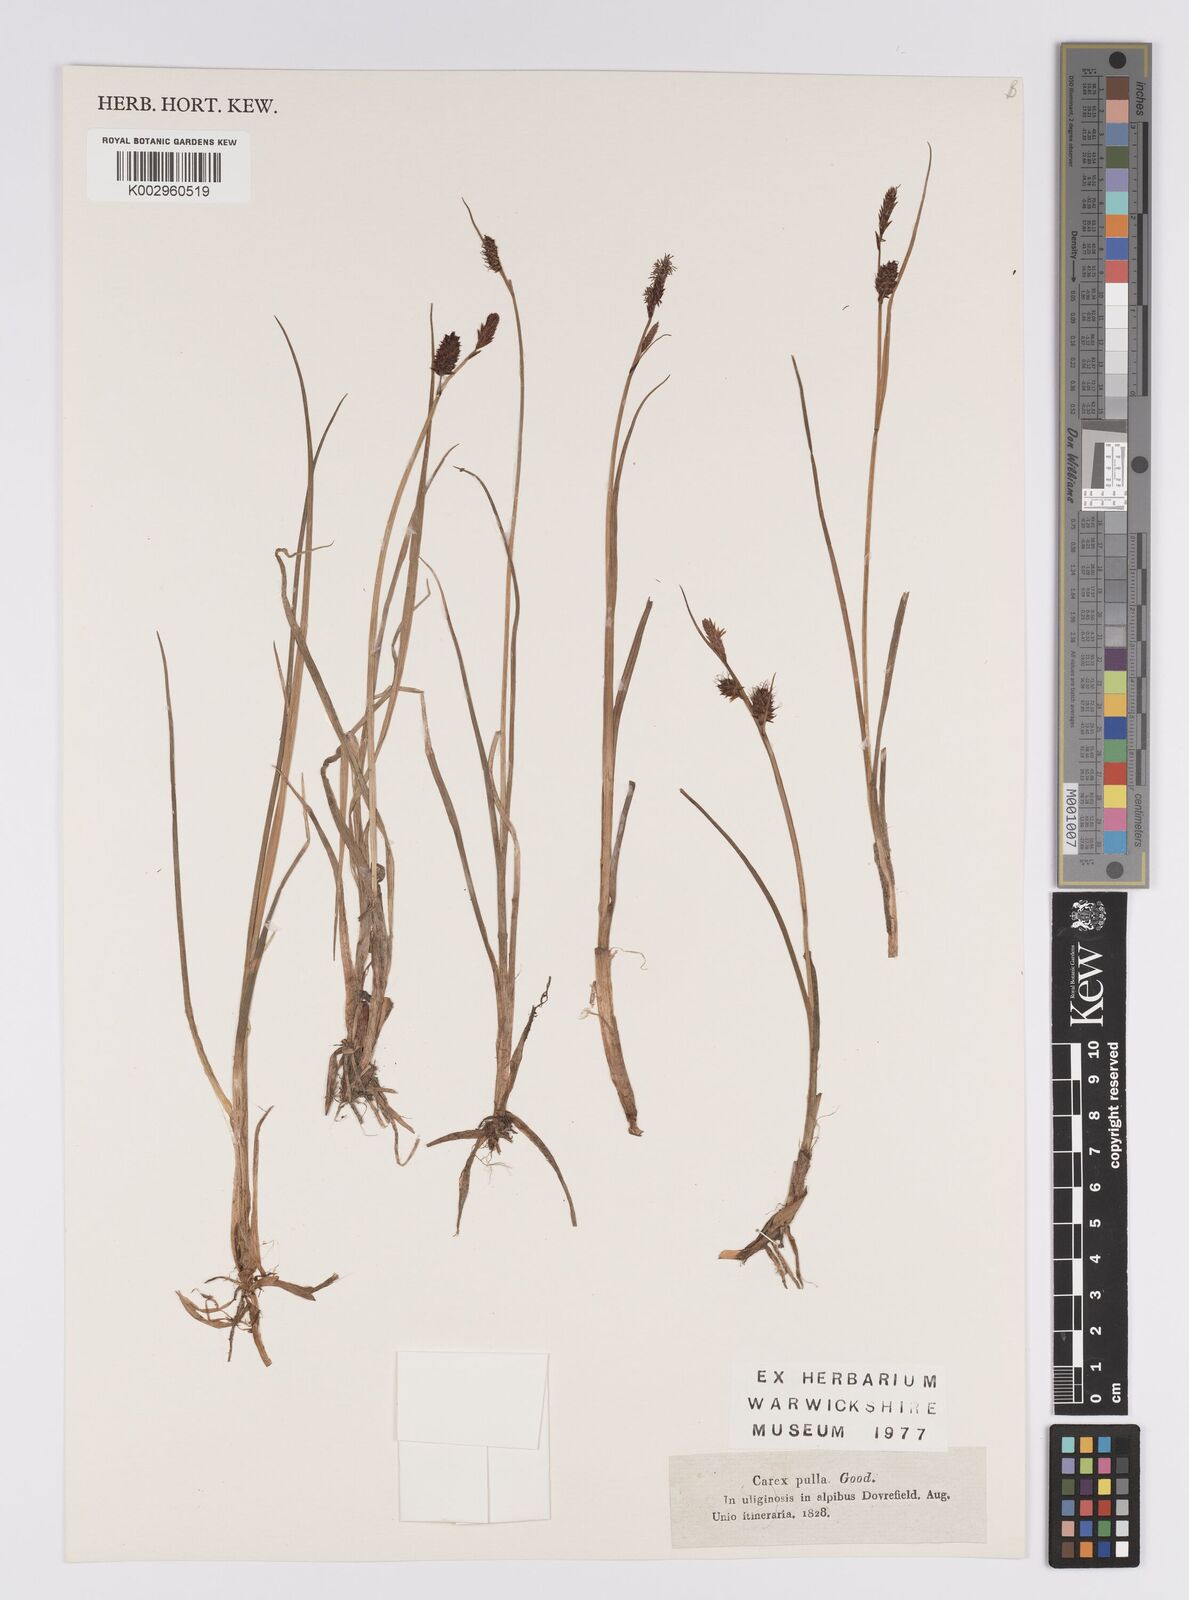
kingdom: Plantae
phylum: Tracheophyta
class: Liliopsida
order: Poales
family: Cyperaceae
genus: Carex
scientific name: Carex saxatilis
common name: Russet sedge
